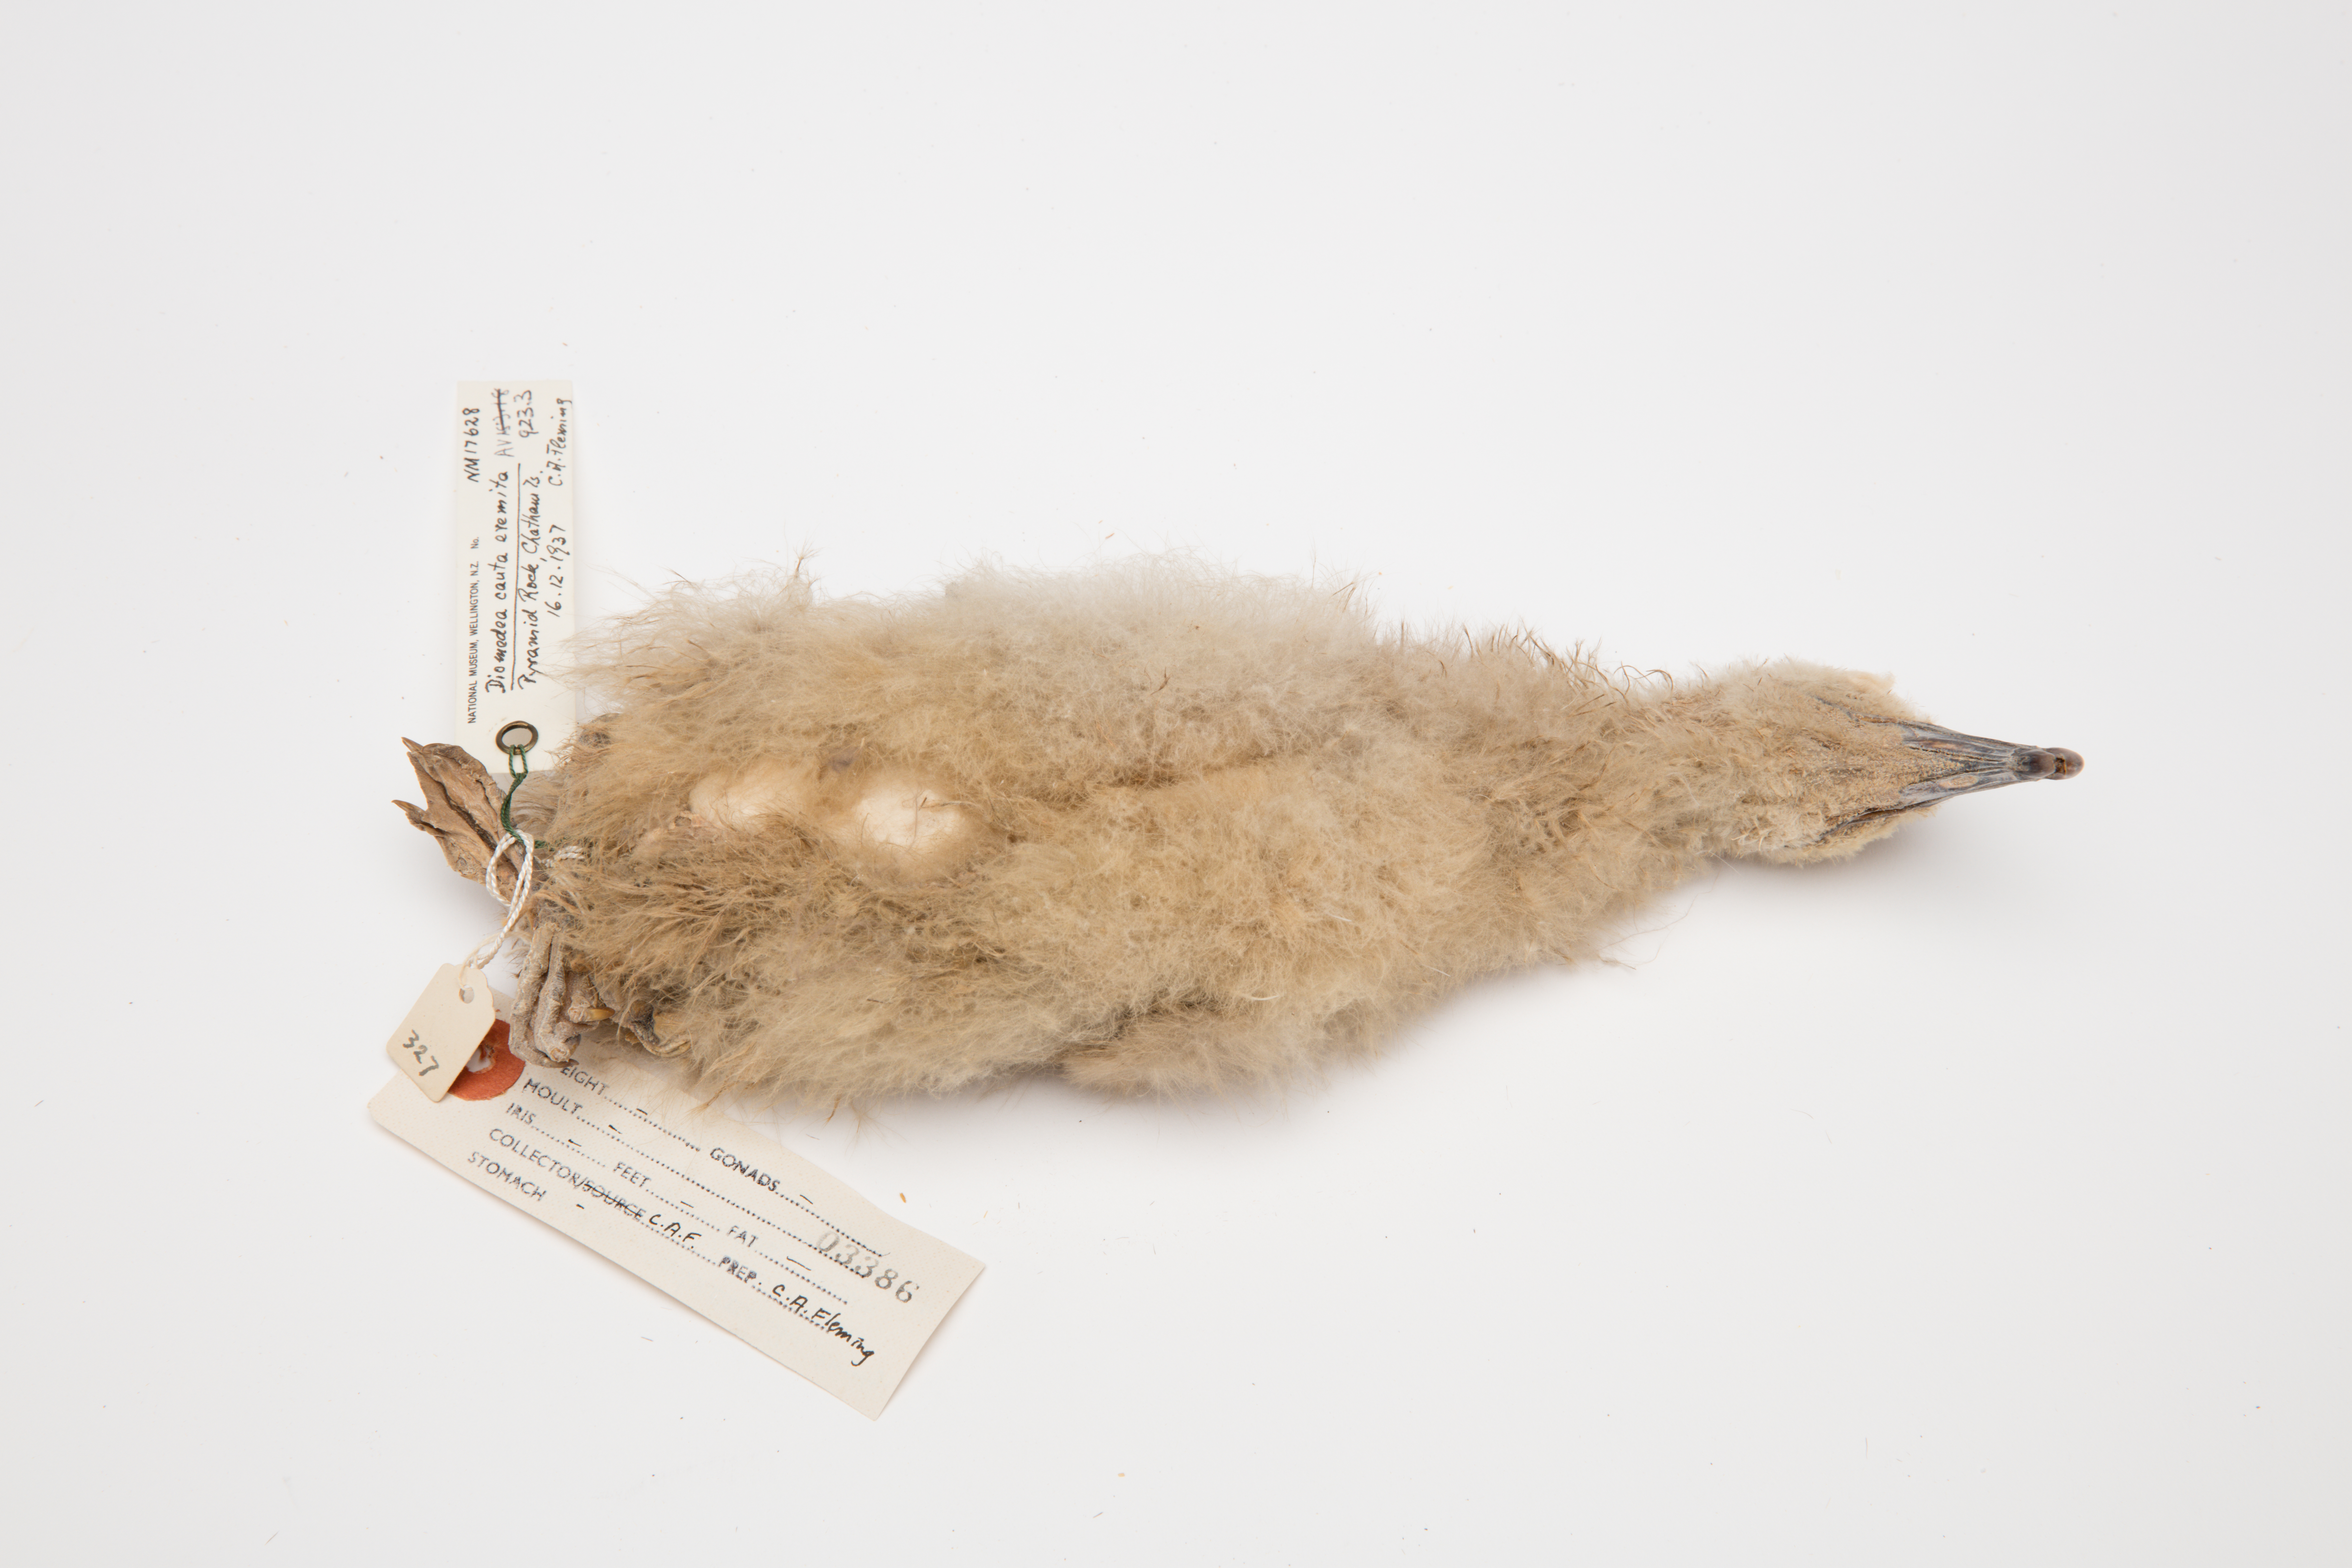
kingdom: Animalia
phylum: Chordata
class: Aves
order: Procellariiformes
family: Diomedeidae
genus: Thalassarche
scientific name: Thalassarche eremita
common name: Chatham albatross
